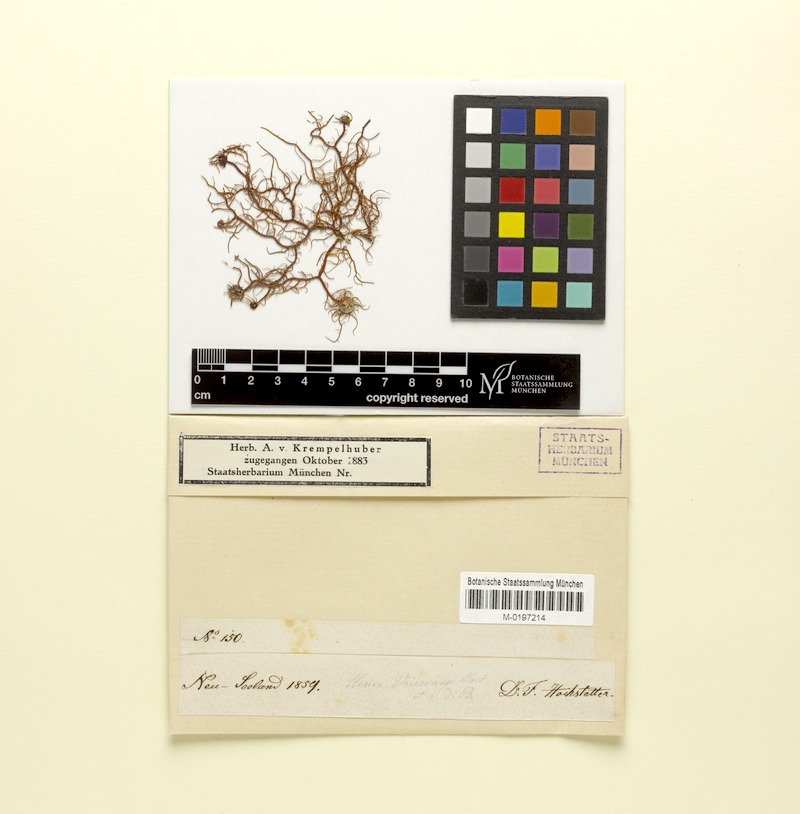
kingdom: Fungi
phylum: Ascomycota
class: Lecanoromycetes
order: Lecanorales
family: Parmeliaceae
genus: Usnea
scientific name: Usnea vrieseana
